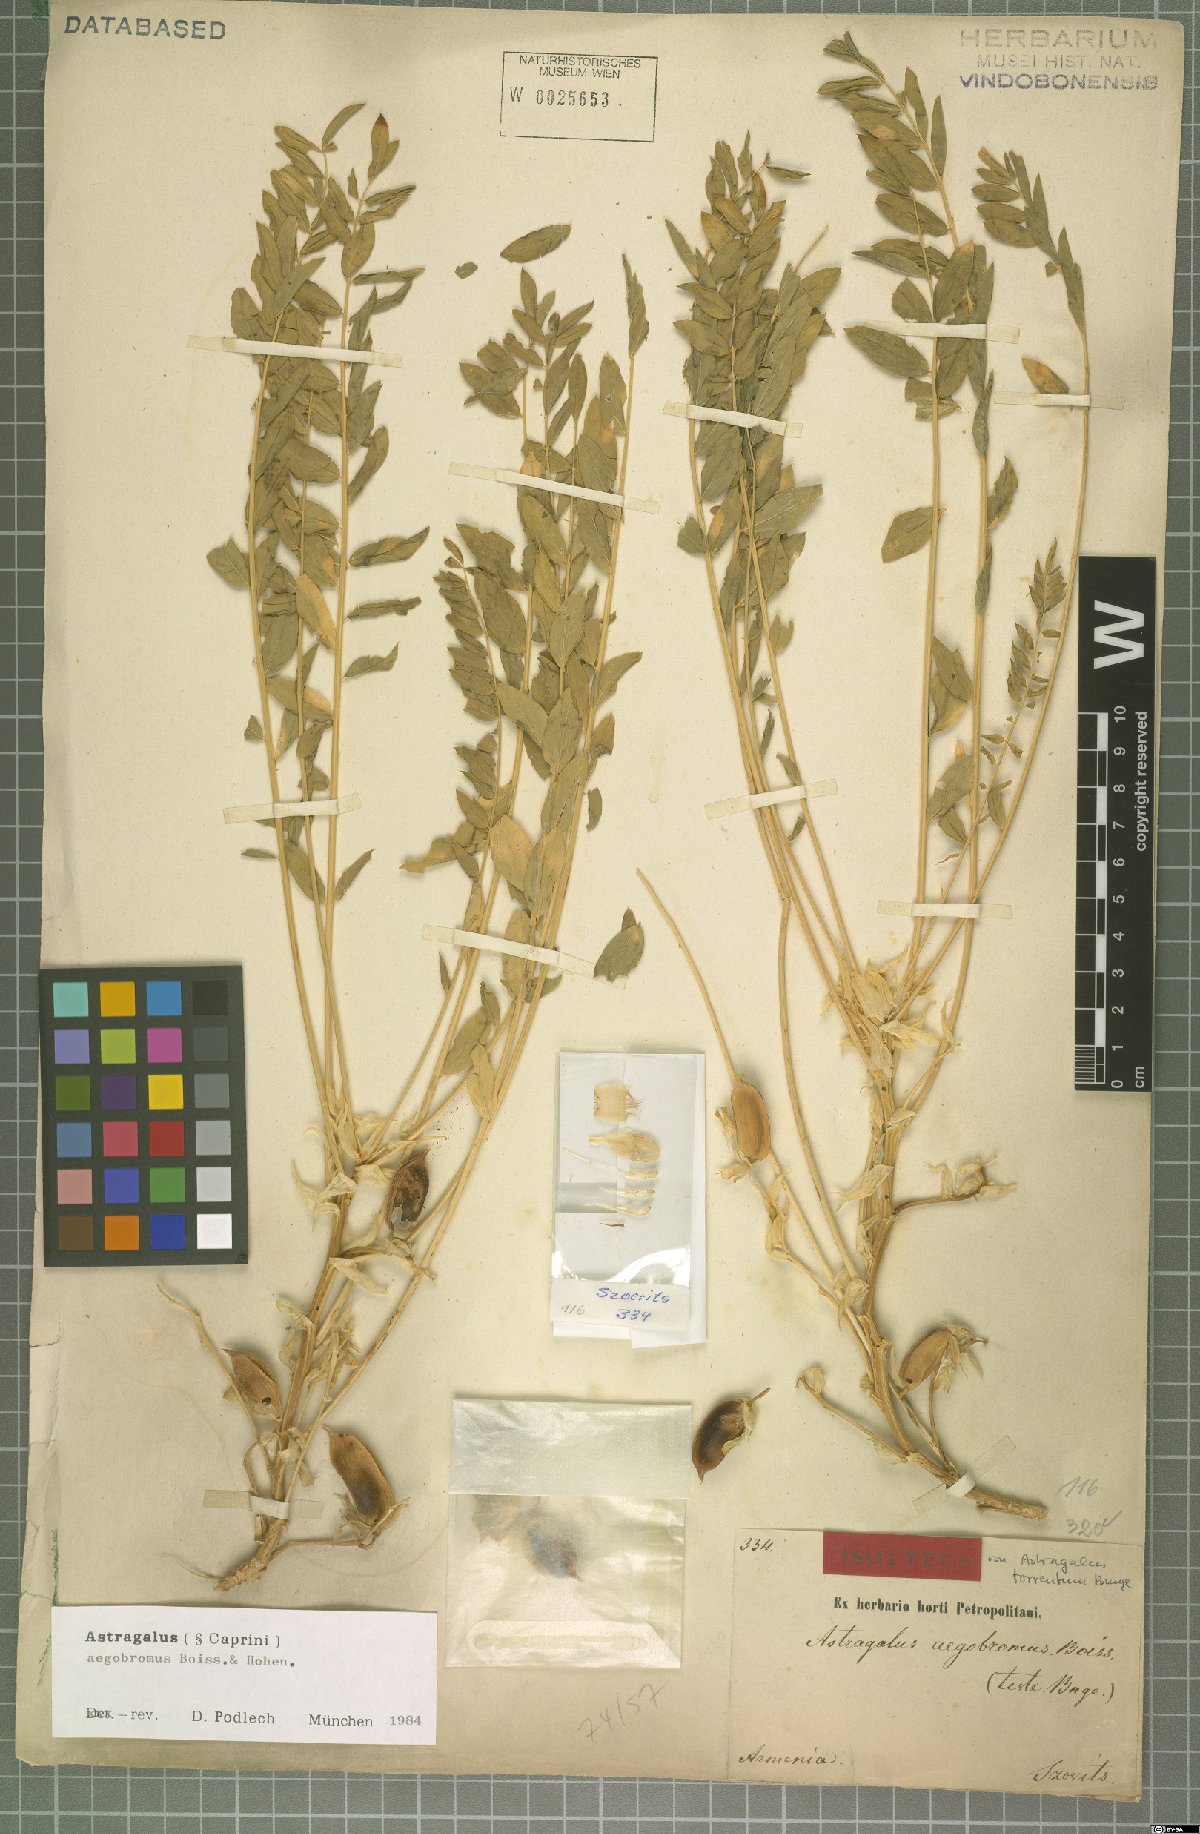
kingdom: Plantae
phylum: Tracheophyta
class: Magnoliopsida
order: Fabales
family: Fabaceae
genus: Astragalus
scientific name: Astragalus aegobromus
